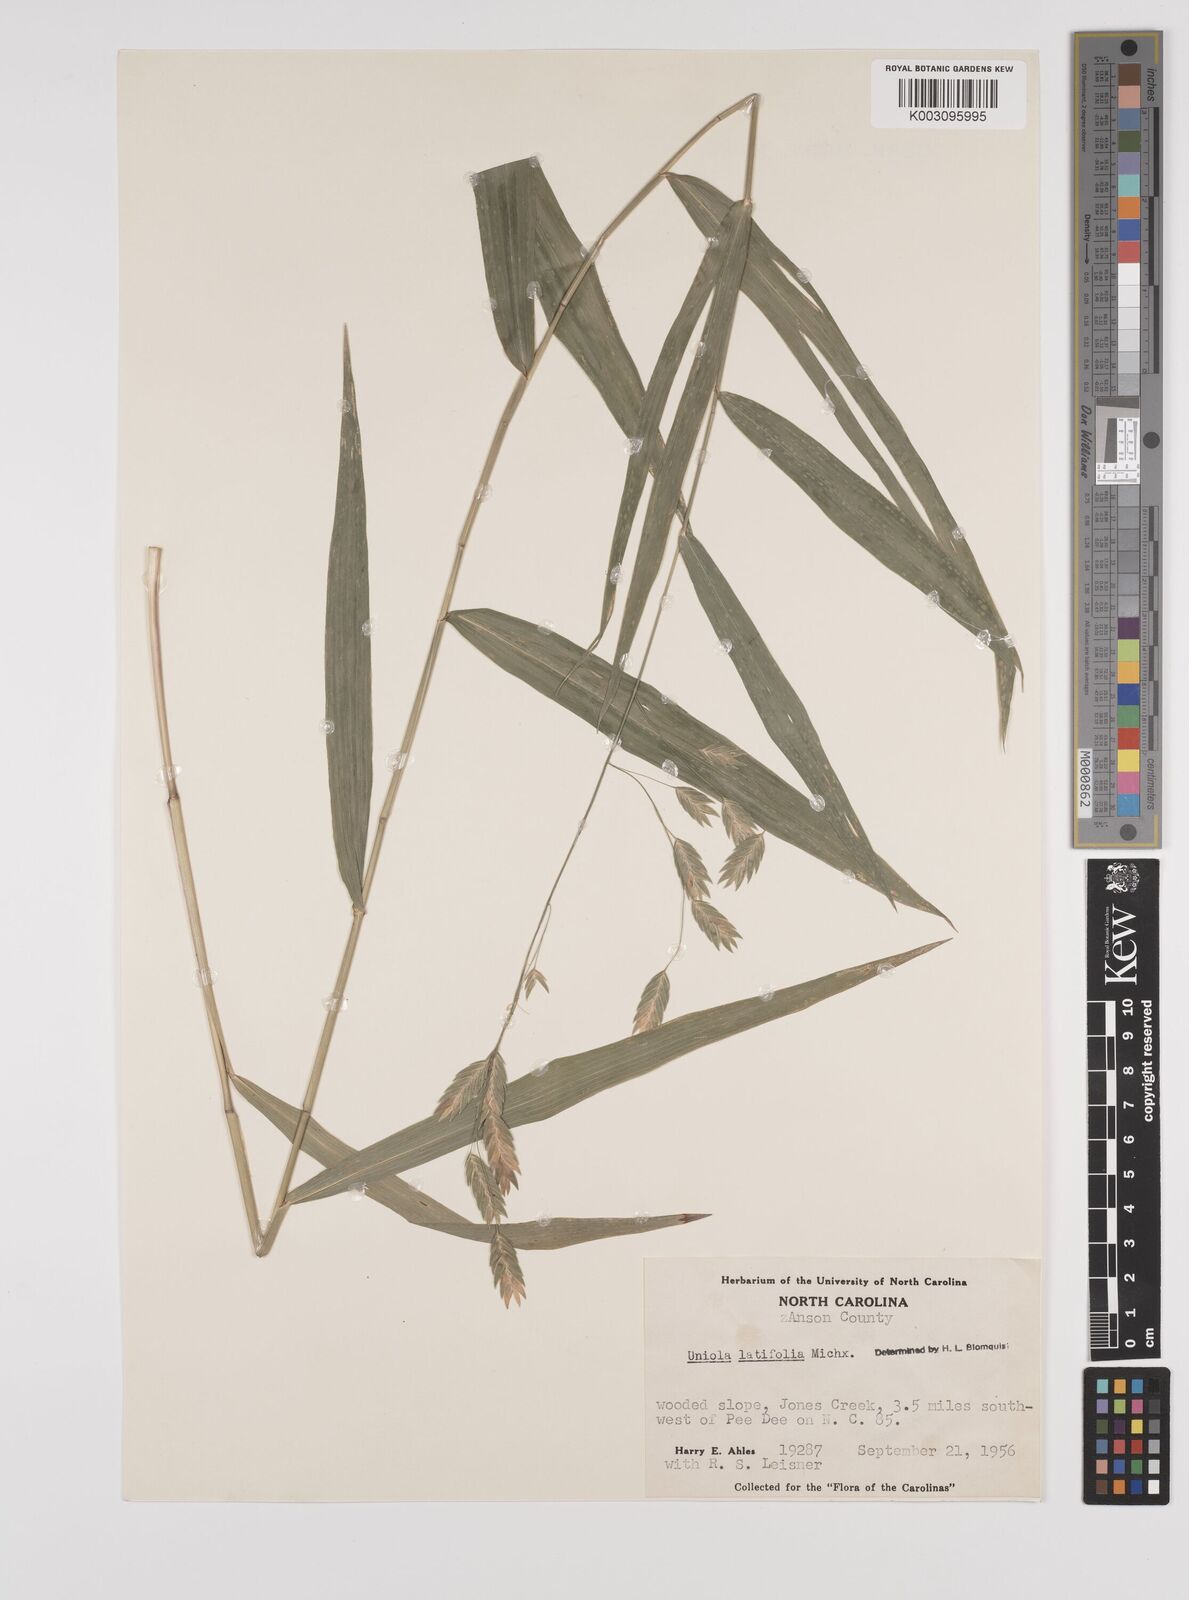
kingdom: Plantae
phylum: Tracheophyta
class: Liliopsida
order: Poales
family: Poaceae
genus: Chasmanthium
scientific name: Chasmanthium latifolium
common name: Broad-leaved chasmanthium
